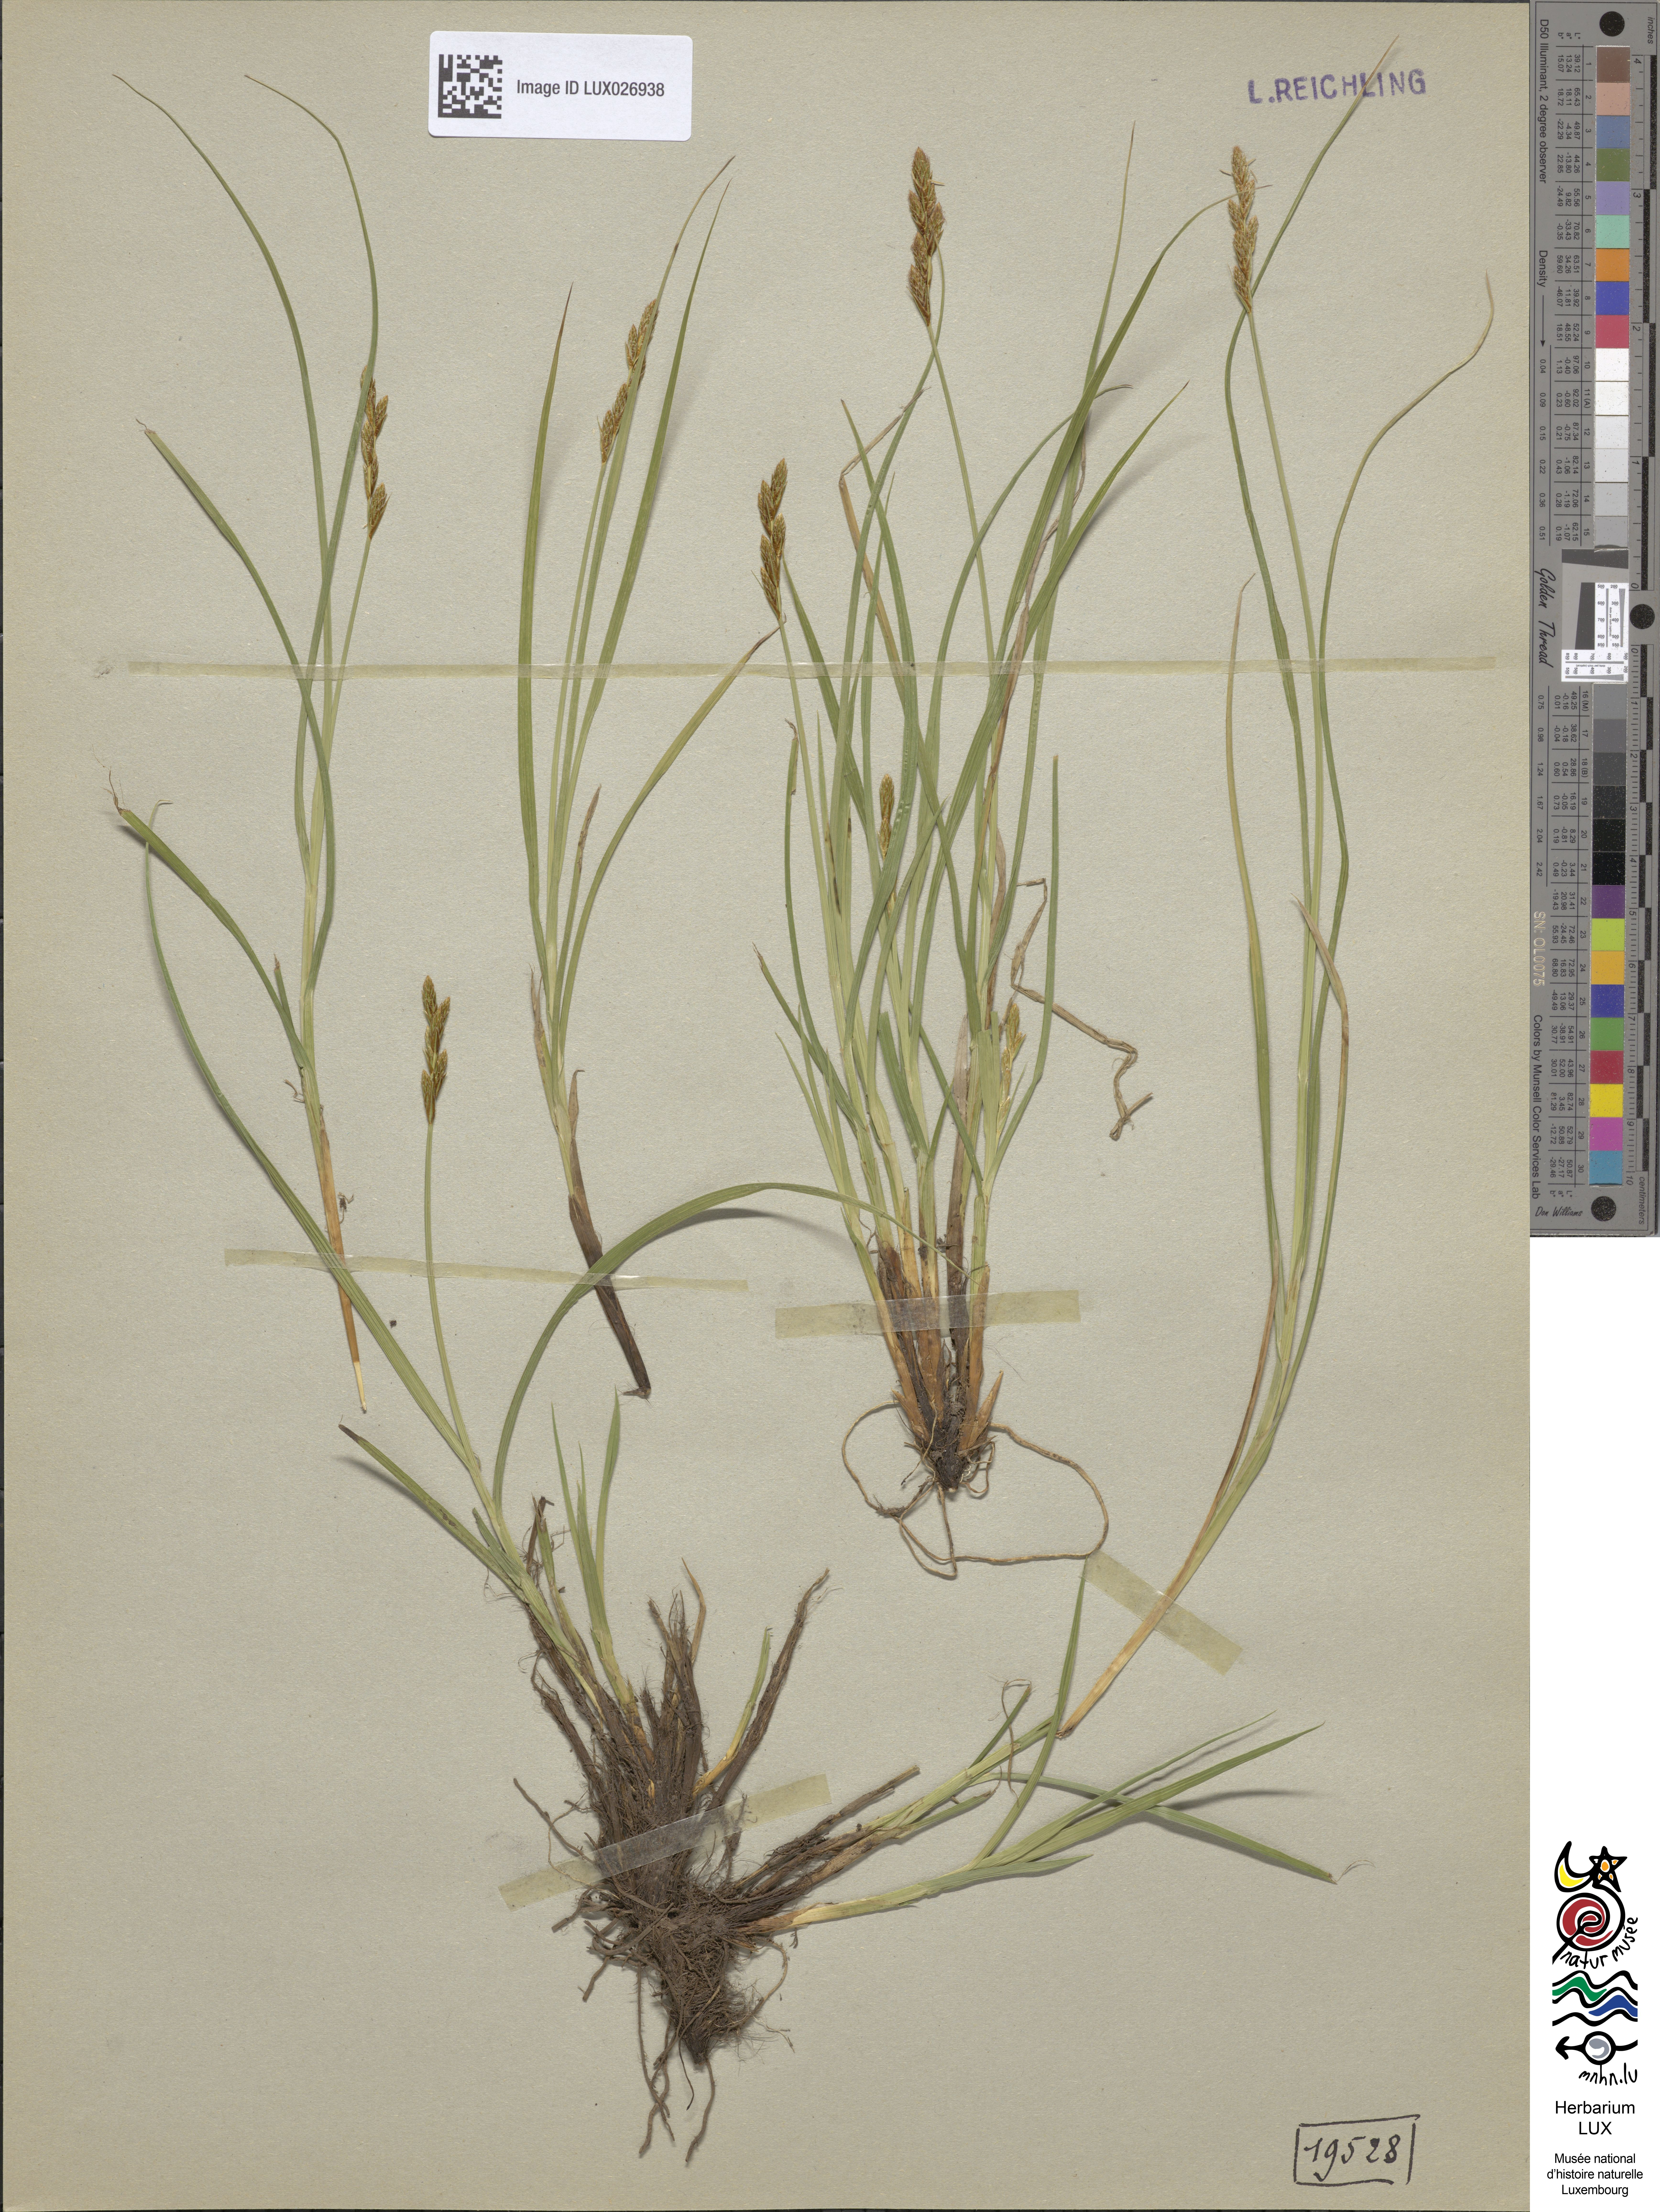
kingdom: Plantae
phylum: Tracheophyta
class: Liliopsida
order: Poales
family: Cyperaceae
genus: Carex
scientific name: Carex leporina
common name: Oval sedge
